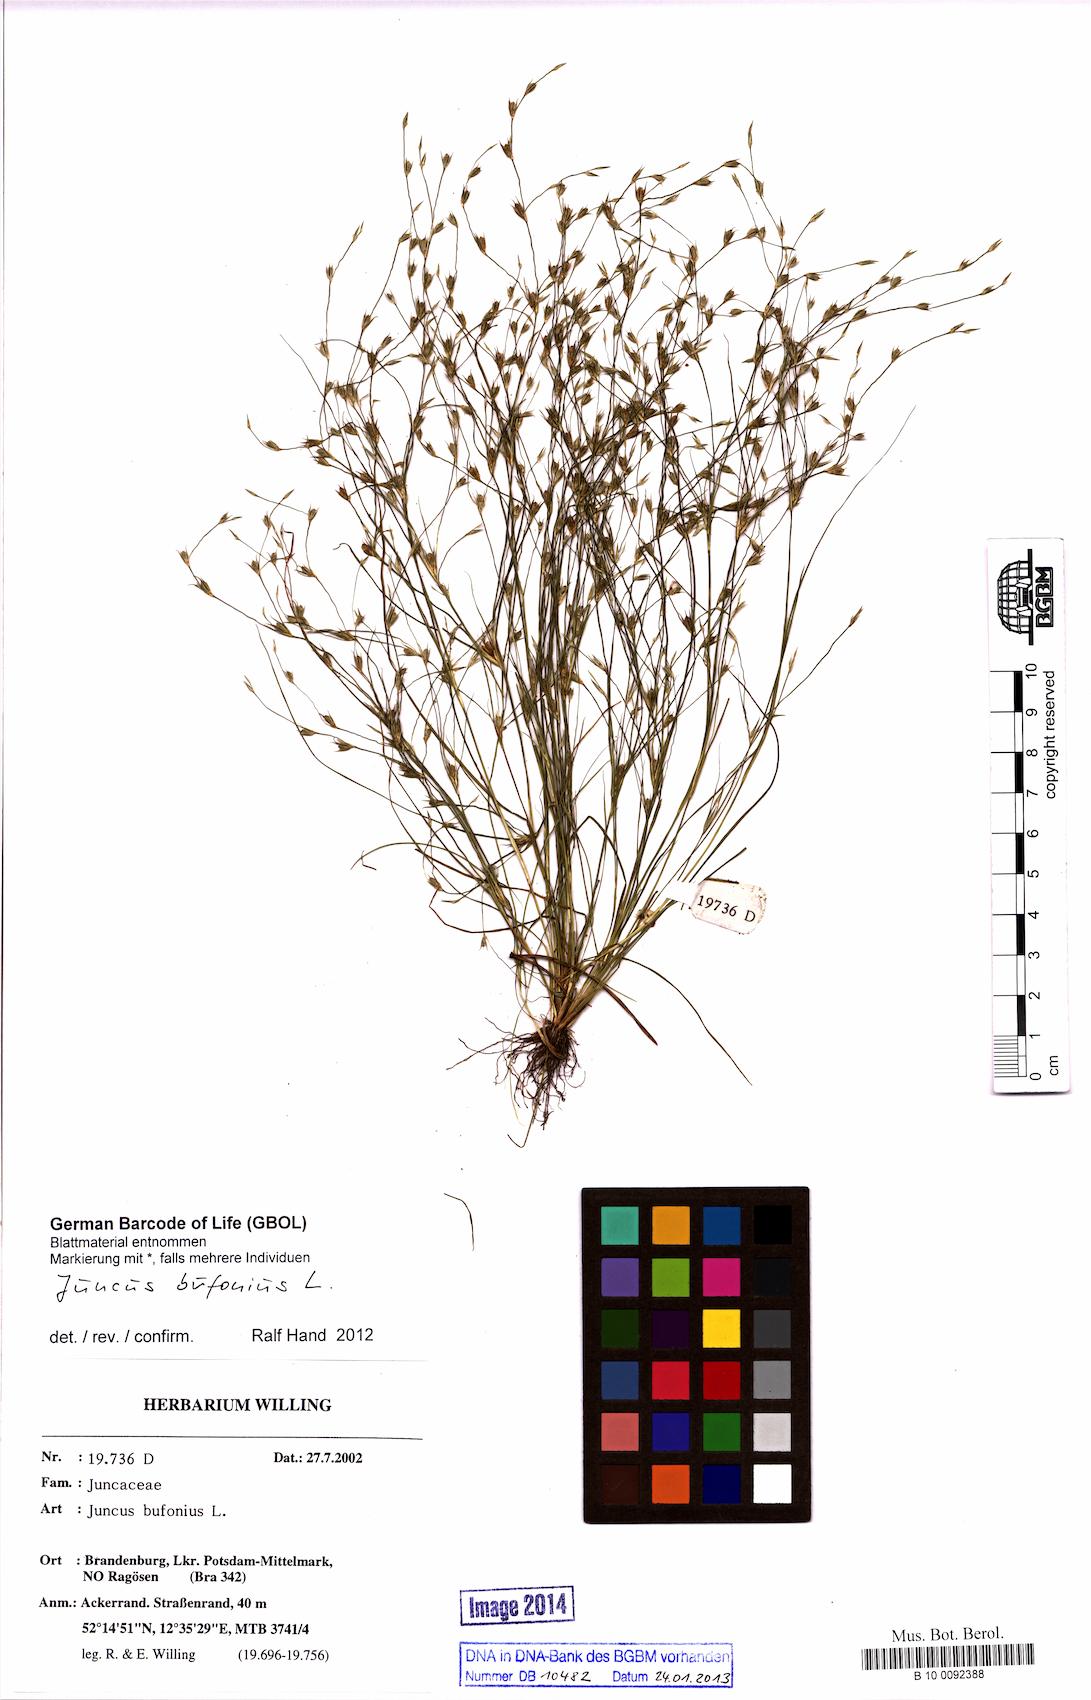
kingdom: Plantae
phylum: Tracheophyta
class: Liliopsida
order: Poales
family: Juncaceae
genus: Juncus
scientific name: Juncus bufonius
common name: Toad rush
